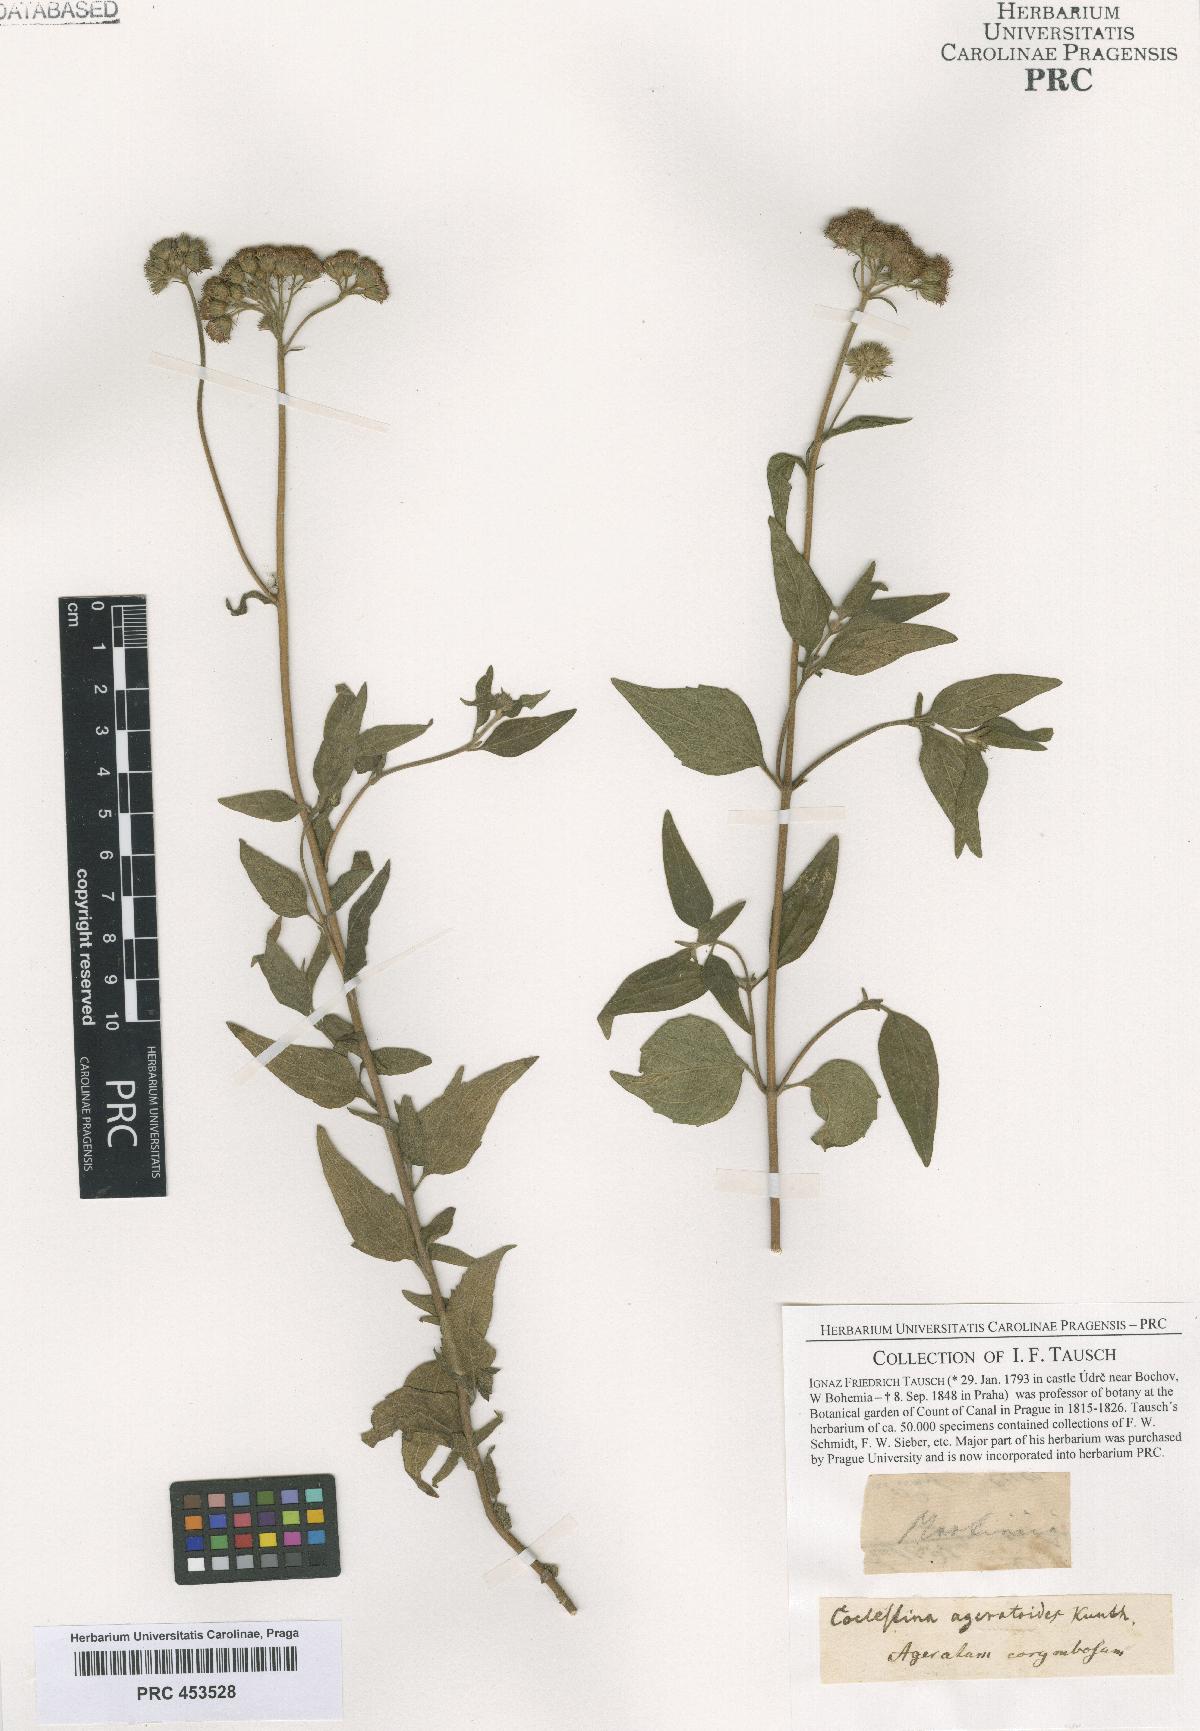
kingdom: Plantae
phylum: Tracheophyta
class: Magnoliopsida
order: Asterales
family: Asteraceae
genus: Ageratum
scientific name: Ageratum corymbosum
